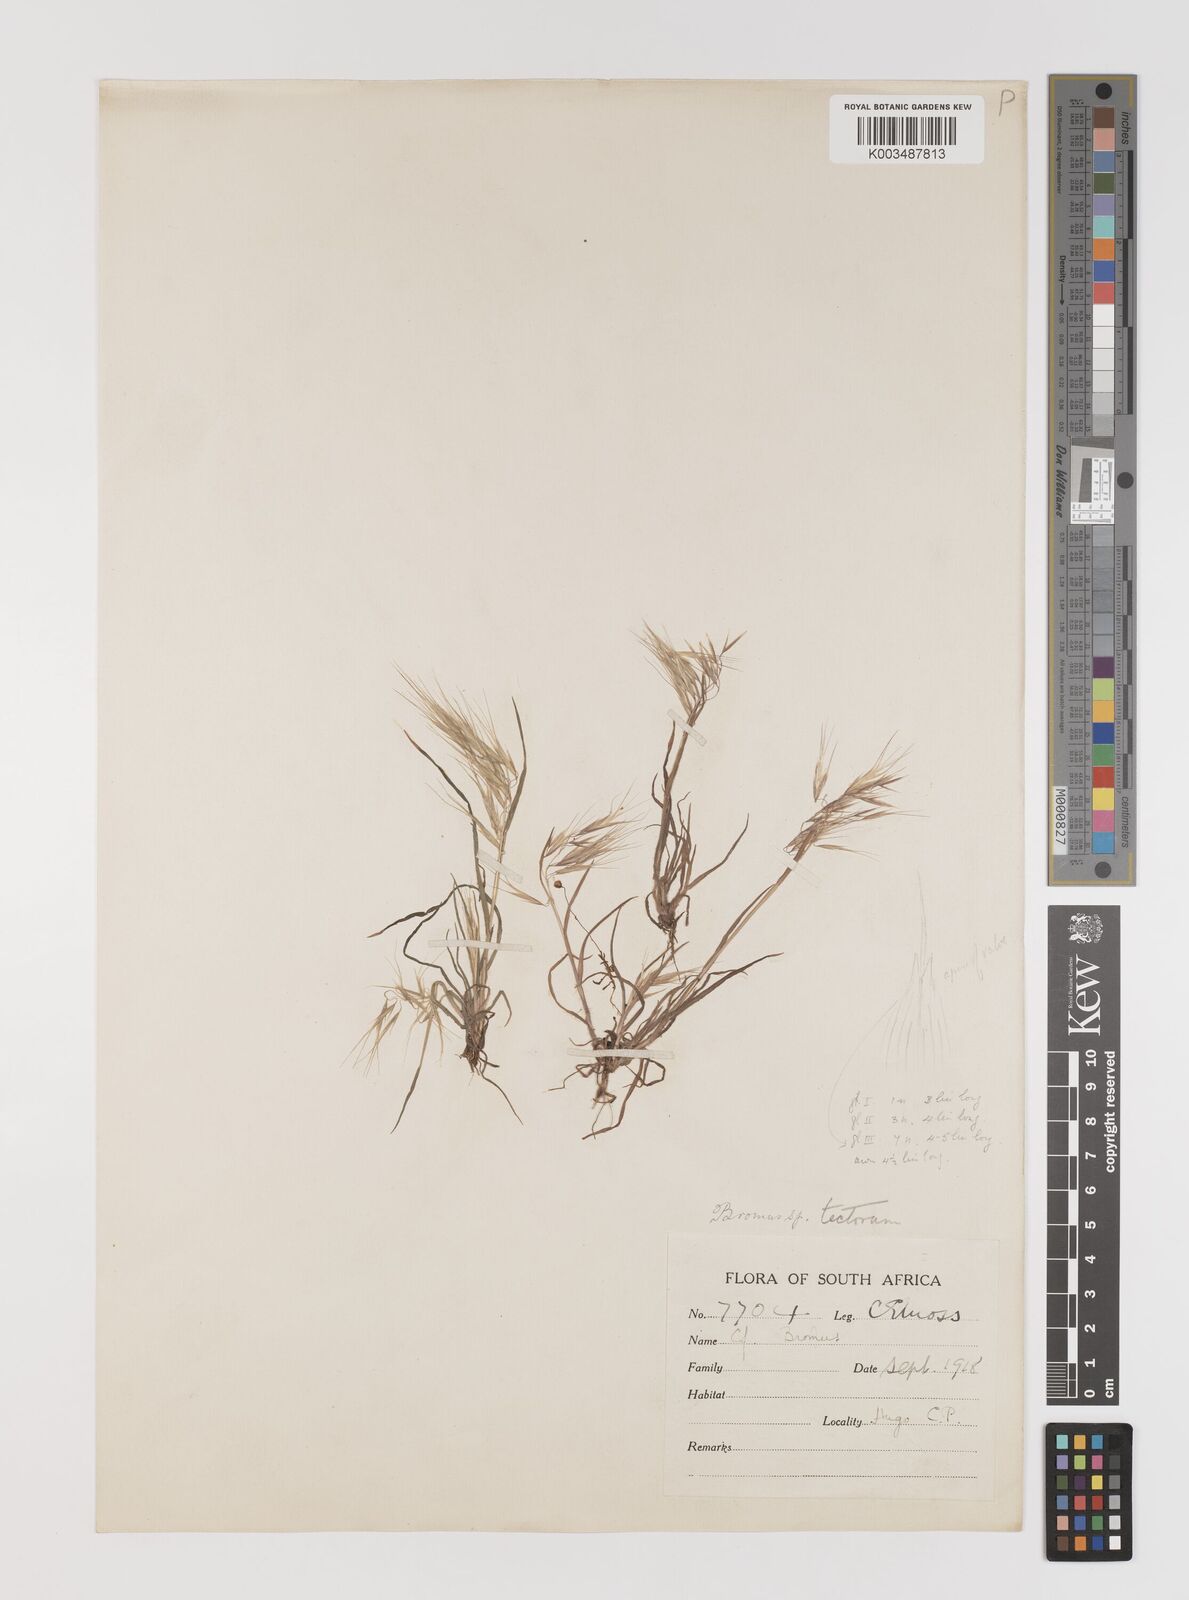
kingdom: Plantae
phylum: Tracheophyta
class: Liliopsida
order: Poales
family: Poaceae
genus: Bromus
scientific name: Bromus tectorum
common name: Cheatgrass
